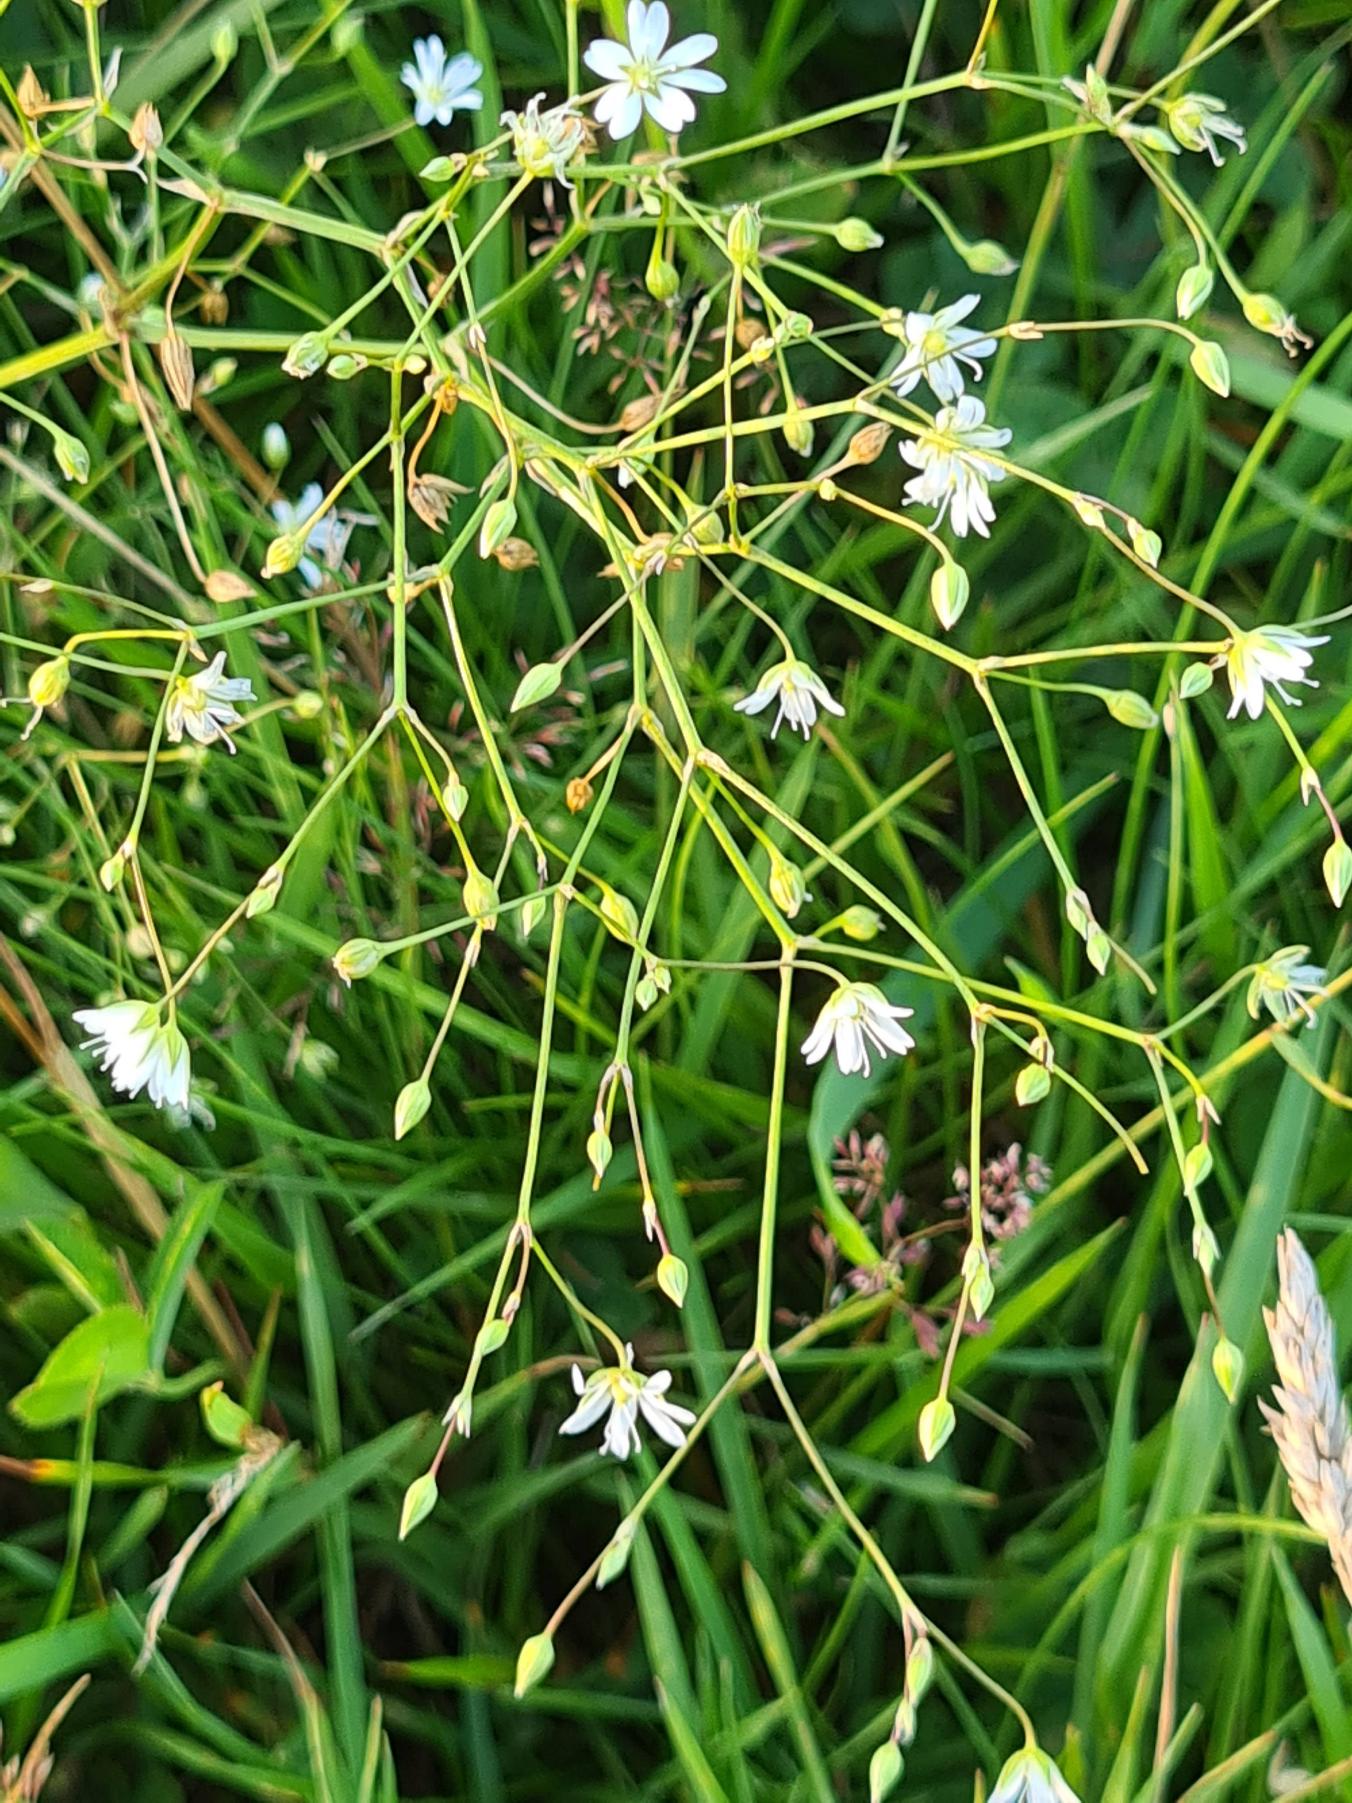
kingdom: Plantae
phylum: Tracheophyta
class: Magnoliopsida
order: Caryophyllales
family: Caryophyllaceae
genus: Stellaria
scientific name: Stellaria graminea
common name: Græsbladet fladstjerne
